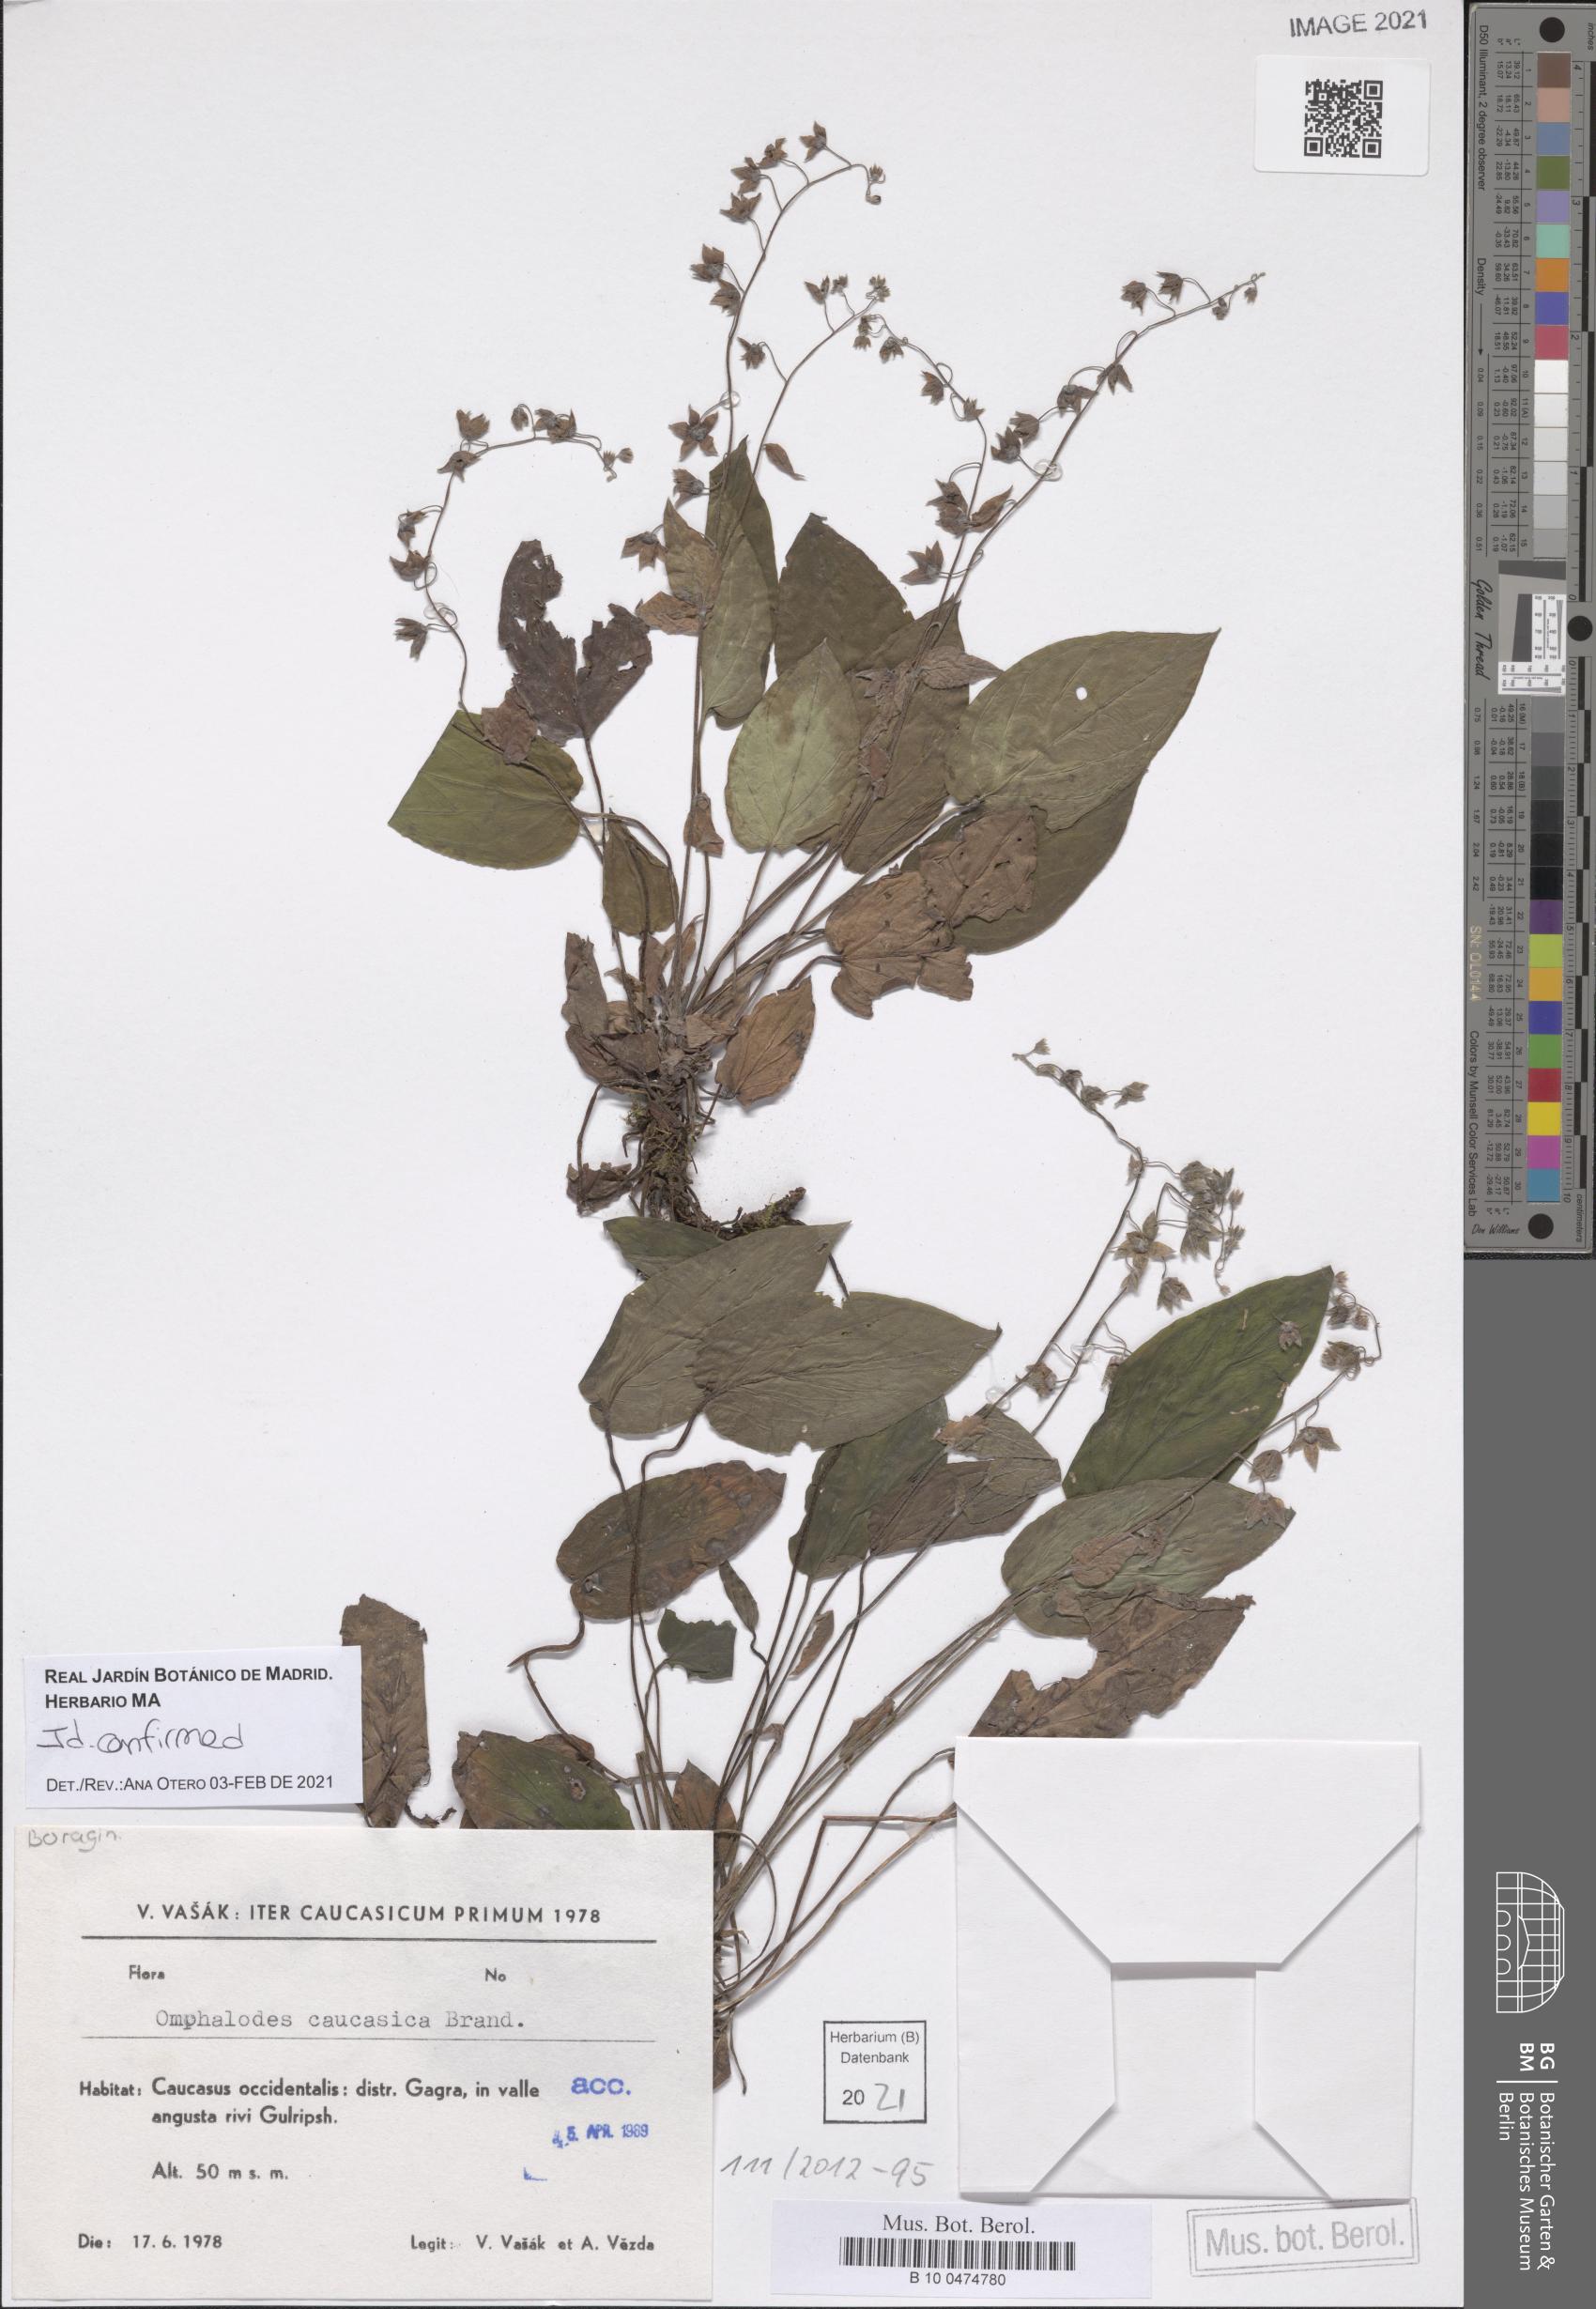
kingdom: Plantae
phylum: Tracheophyta
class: Magnoliopsida
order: Boraginales
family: Boraginaceae
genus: Omphalodes
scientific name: Omphalodes cappadocica
